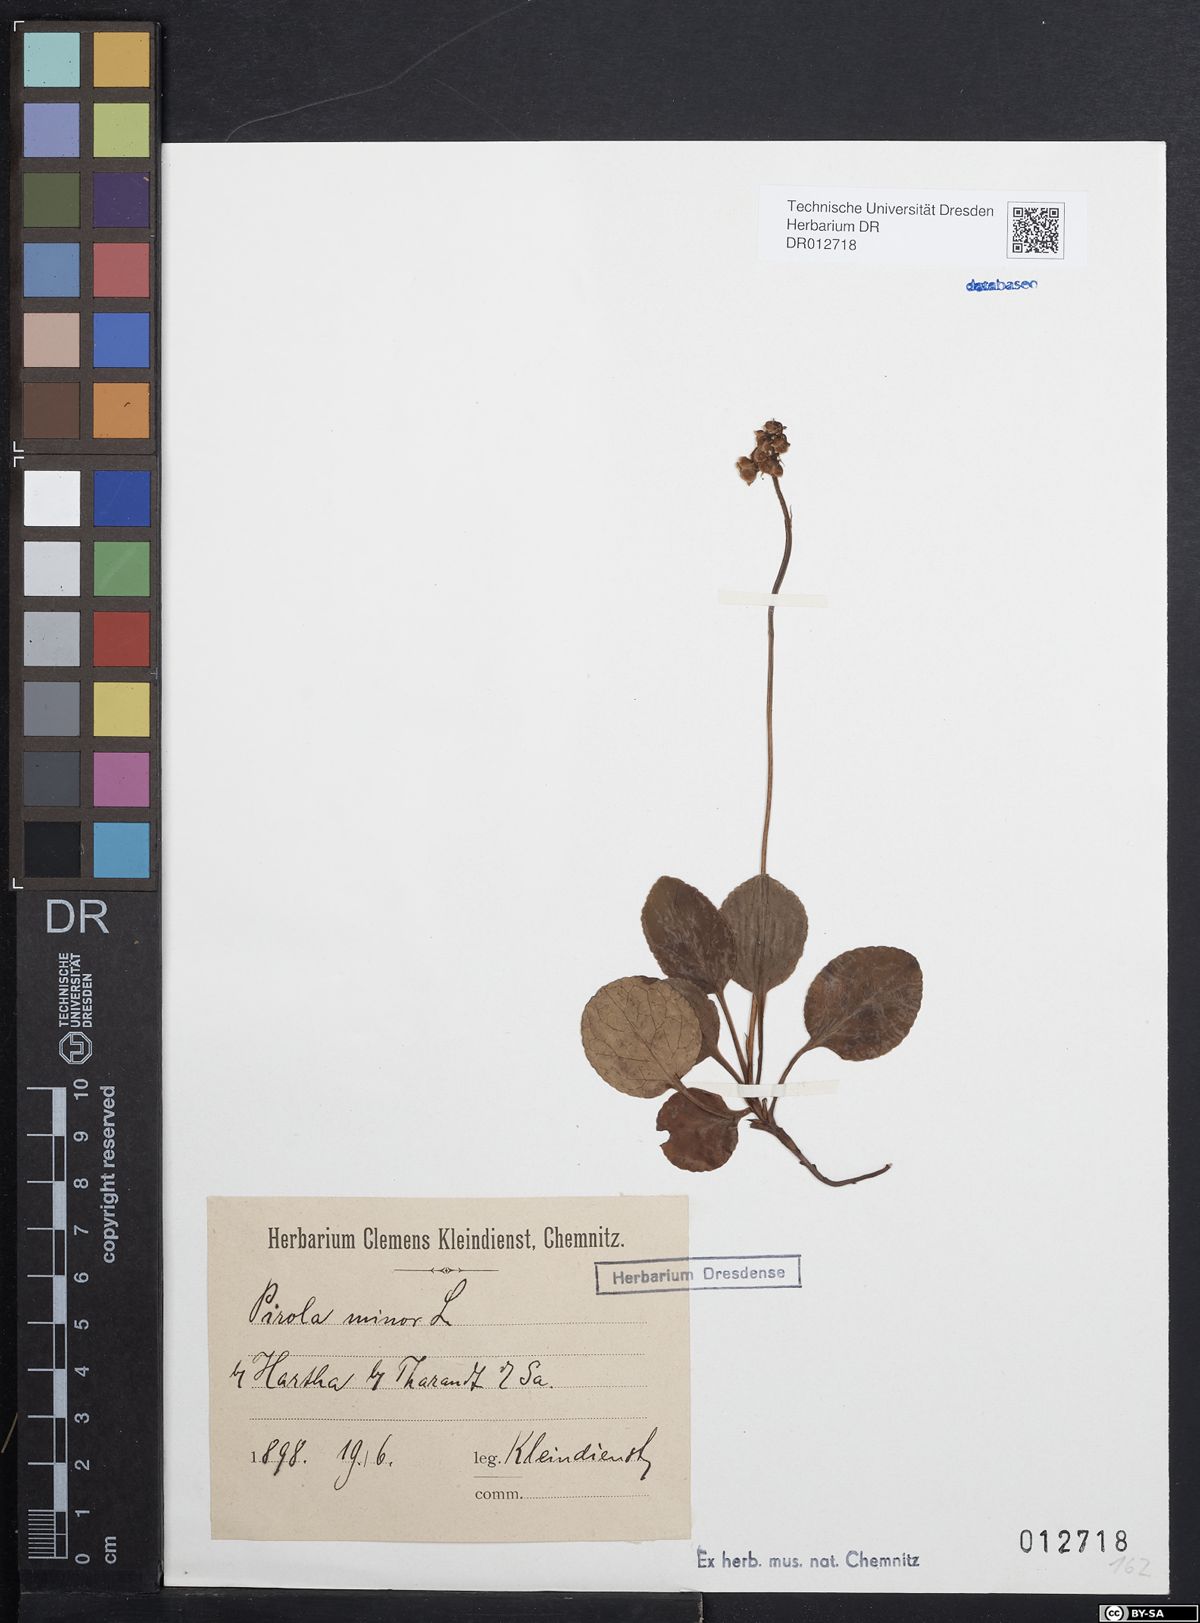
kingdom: Plantae
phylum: Tracheophyta
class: Magnoliopsida
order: Ericales
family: Ericaceae
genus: Pyrola
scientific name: Pyrola minor
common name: Common wintergreen
